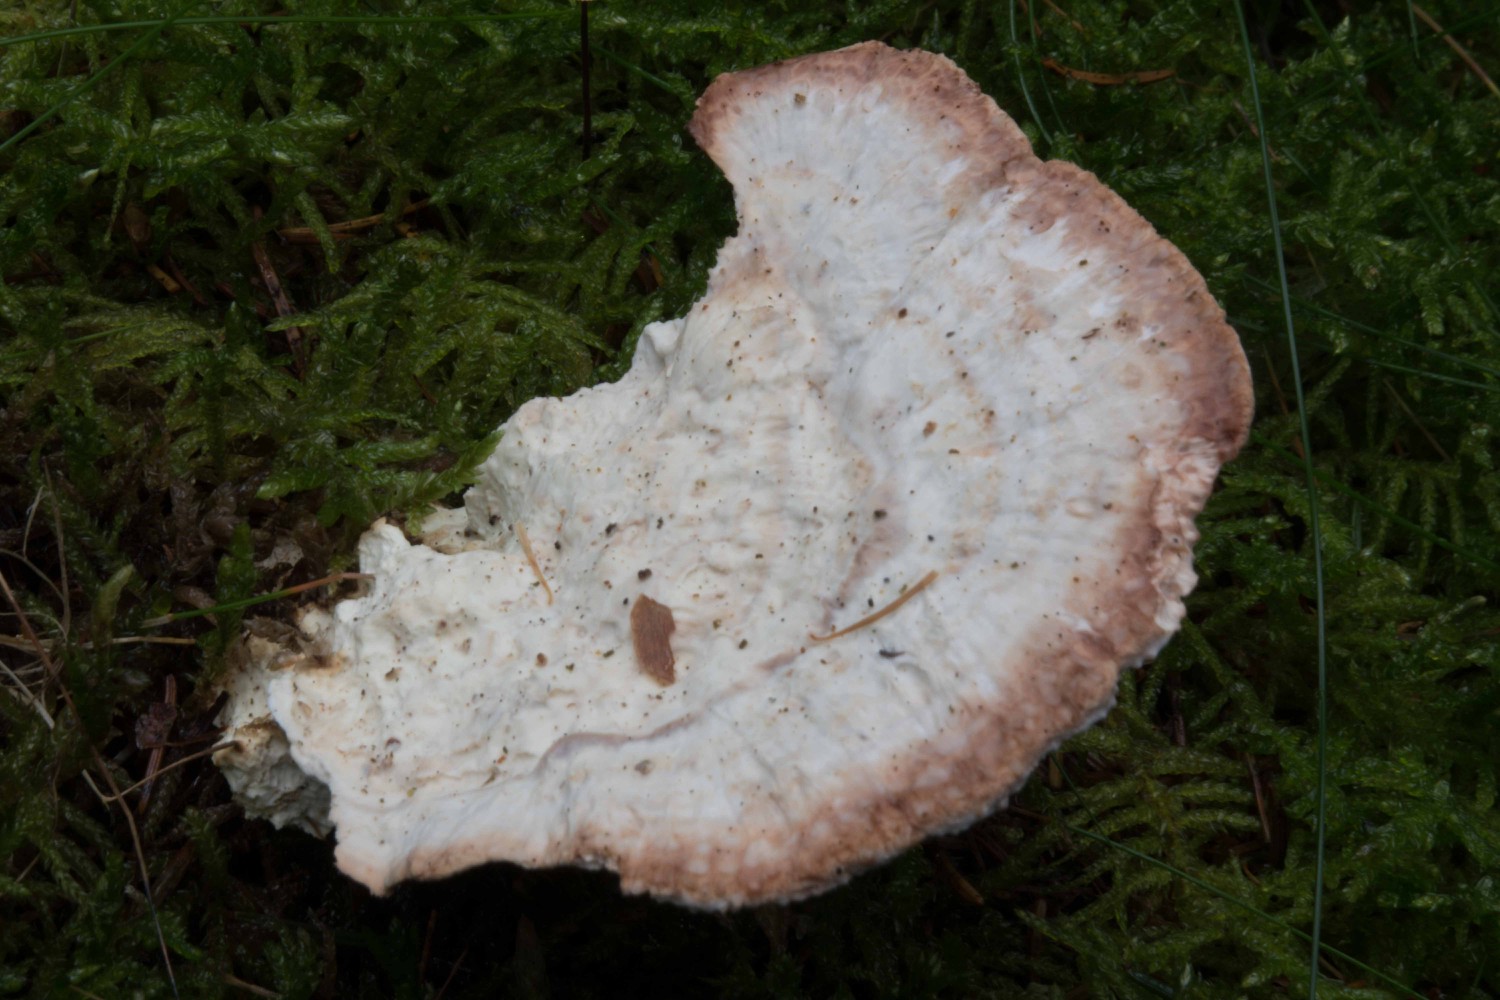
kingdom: Fungi
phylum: Basidiomycota
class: Agaricomycetes
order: Polyporales
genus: Calcipostia
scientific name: Calcipostia guttulata
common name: dråbe-kødporesvamp
